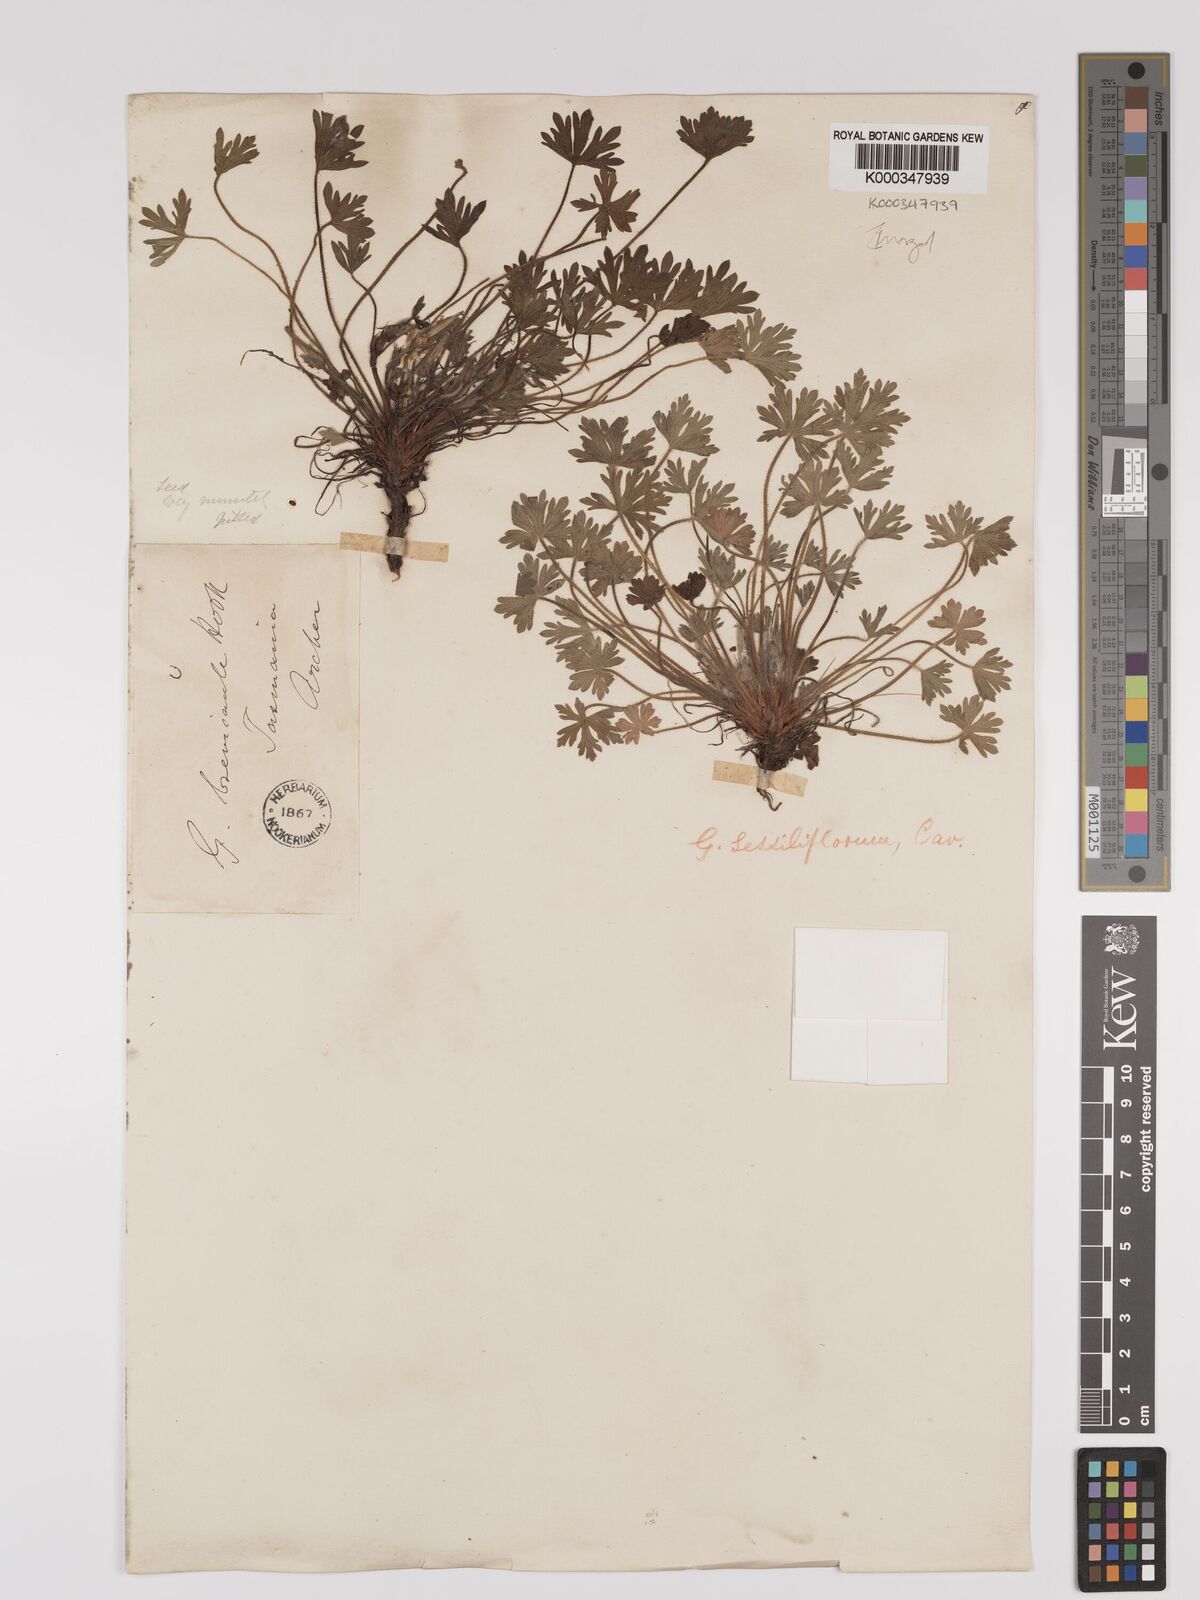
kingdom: Plantae
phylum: Tracheophyta
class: Magnoliopsida
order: Geraniales
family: Geraniaceae
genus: Geranium
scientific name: Geranium sessiliflorum
